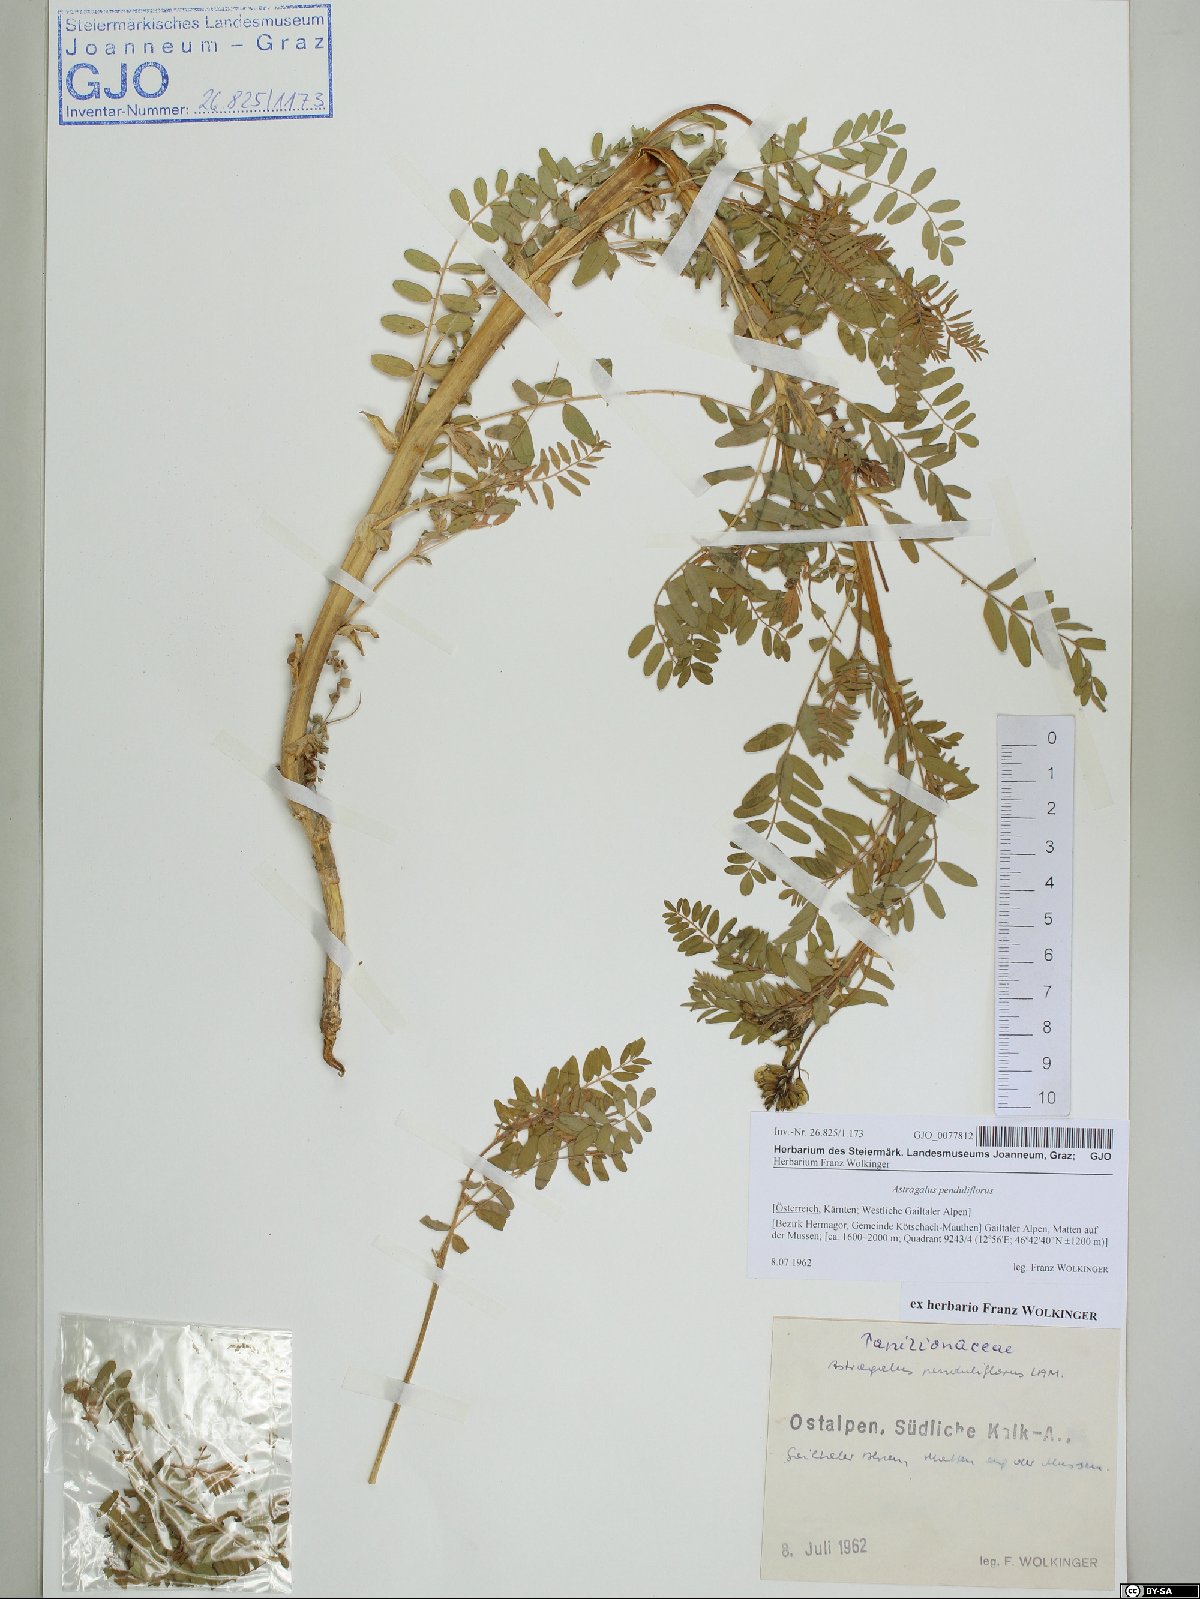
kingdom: Plantae
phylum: Tracheophyta
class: Magnoliopsida
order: Fabales
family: Fabaceae
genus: Astragalus
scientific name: Astragalus penduliflorus
